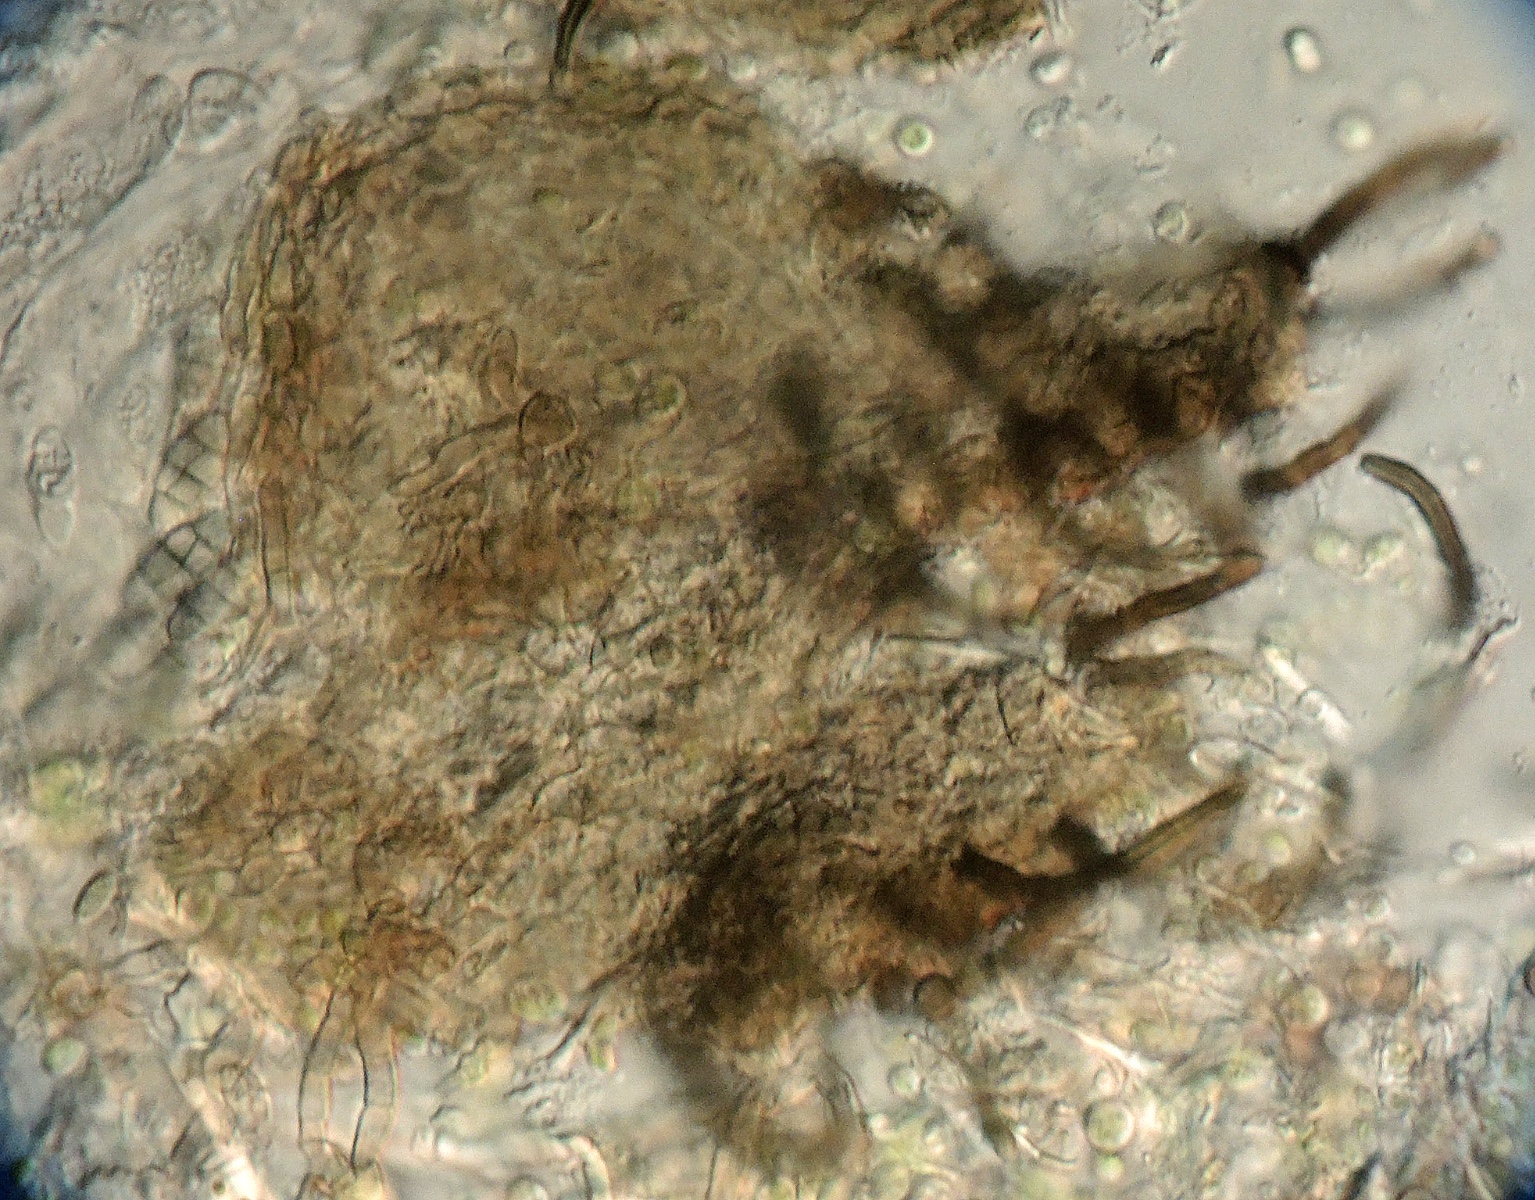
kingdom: Fungi
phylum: Ascomycota
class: Eurotiomycetes
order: Chaetothyriales
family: Herpotrichiellaceae
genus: Capronia
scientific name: Capronia
